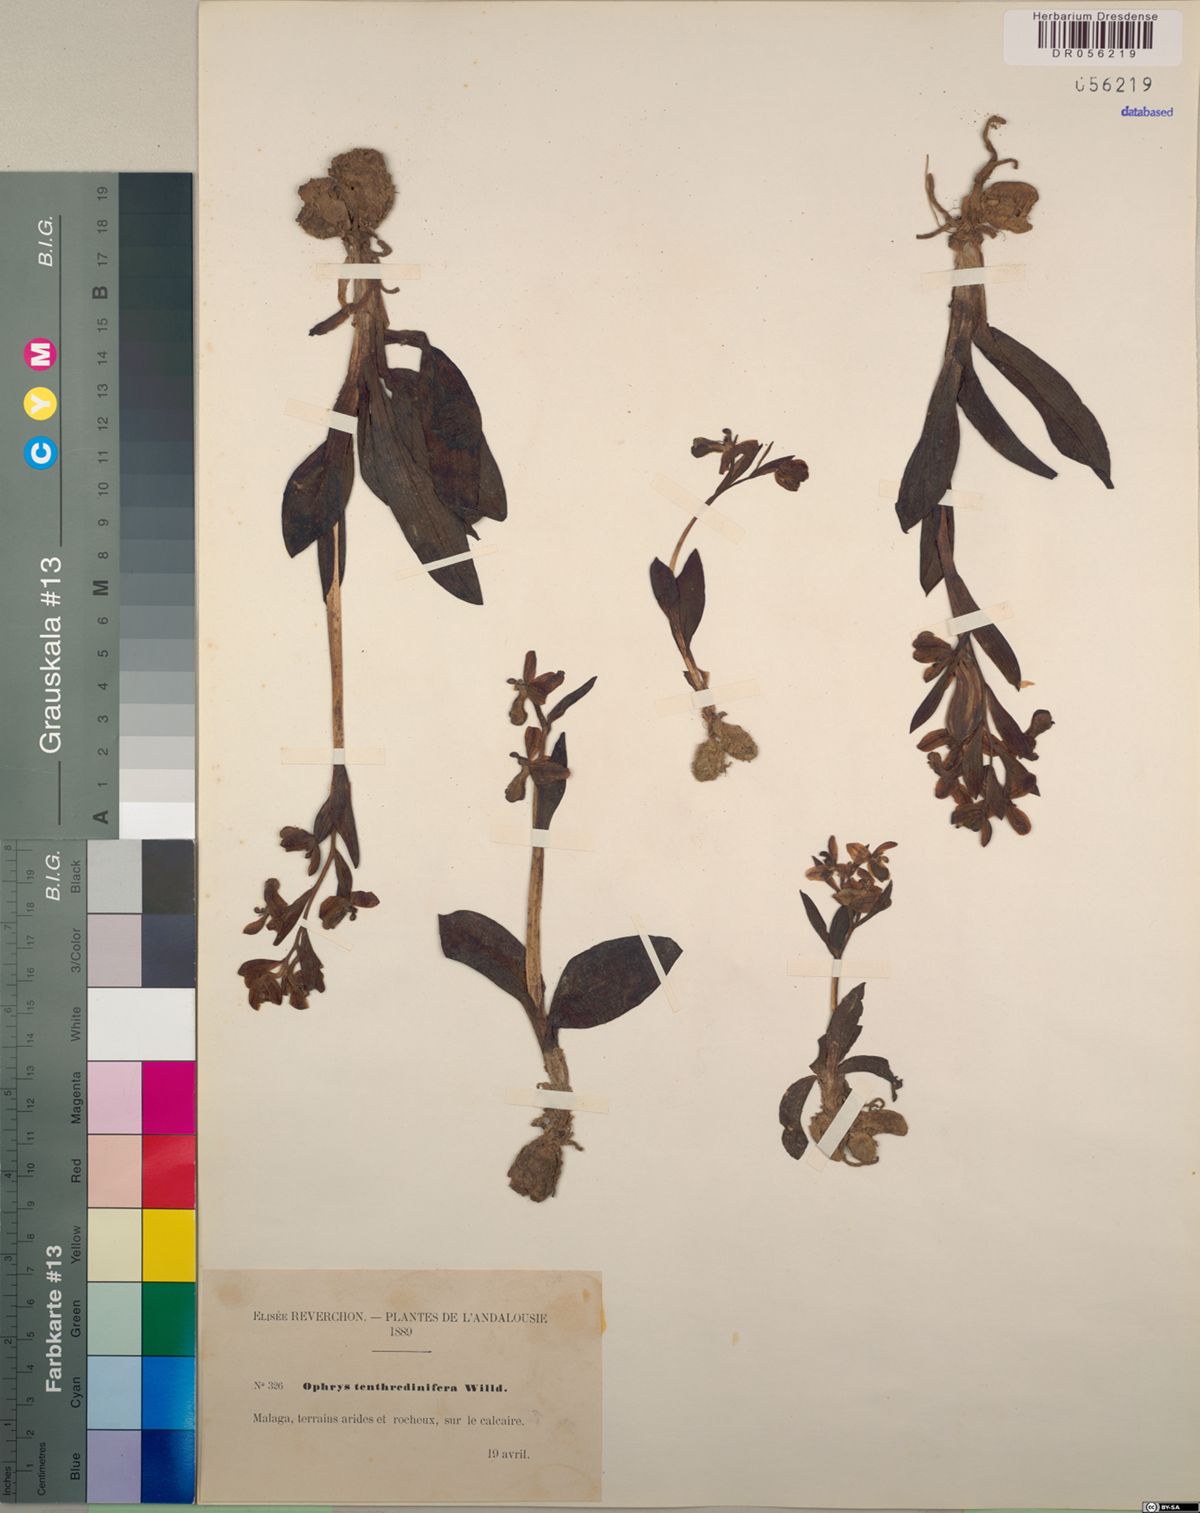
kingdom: Plantae
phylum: Tracheophyta
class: Liliopsida
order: Asparagales
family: Orchidaceae
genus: Ophrys
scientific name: Ophrys tenthredinifera
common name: Sawfly orchid
